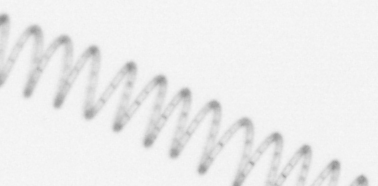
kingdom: Chromista
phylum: Ochrophyta
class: Bacillariophyceae
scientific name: Bacillariophyceae
